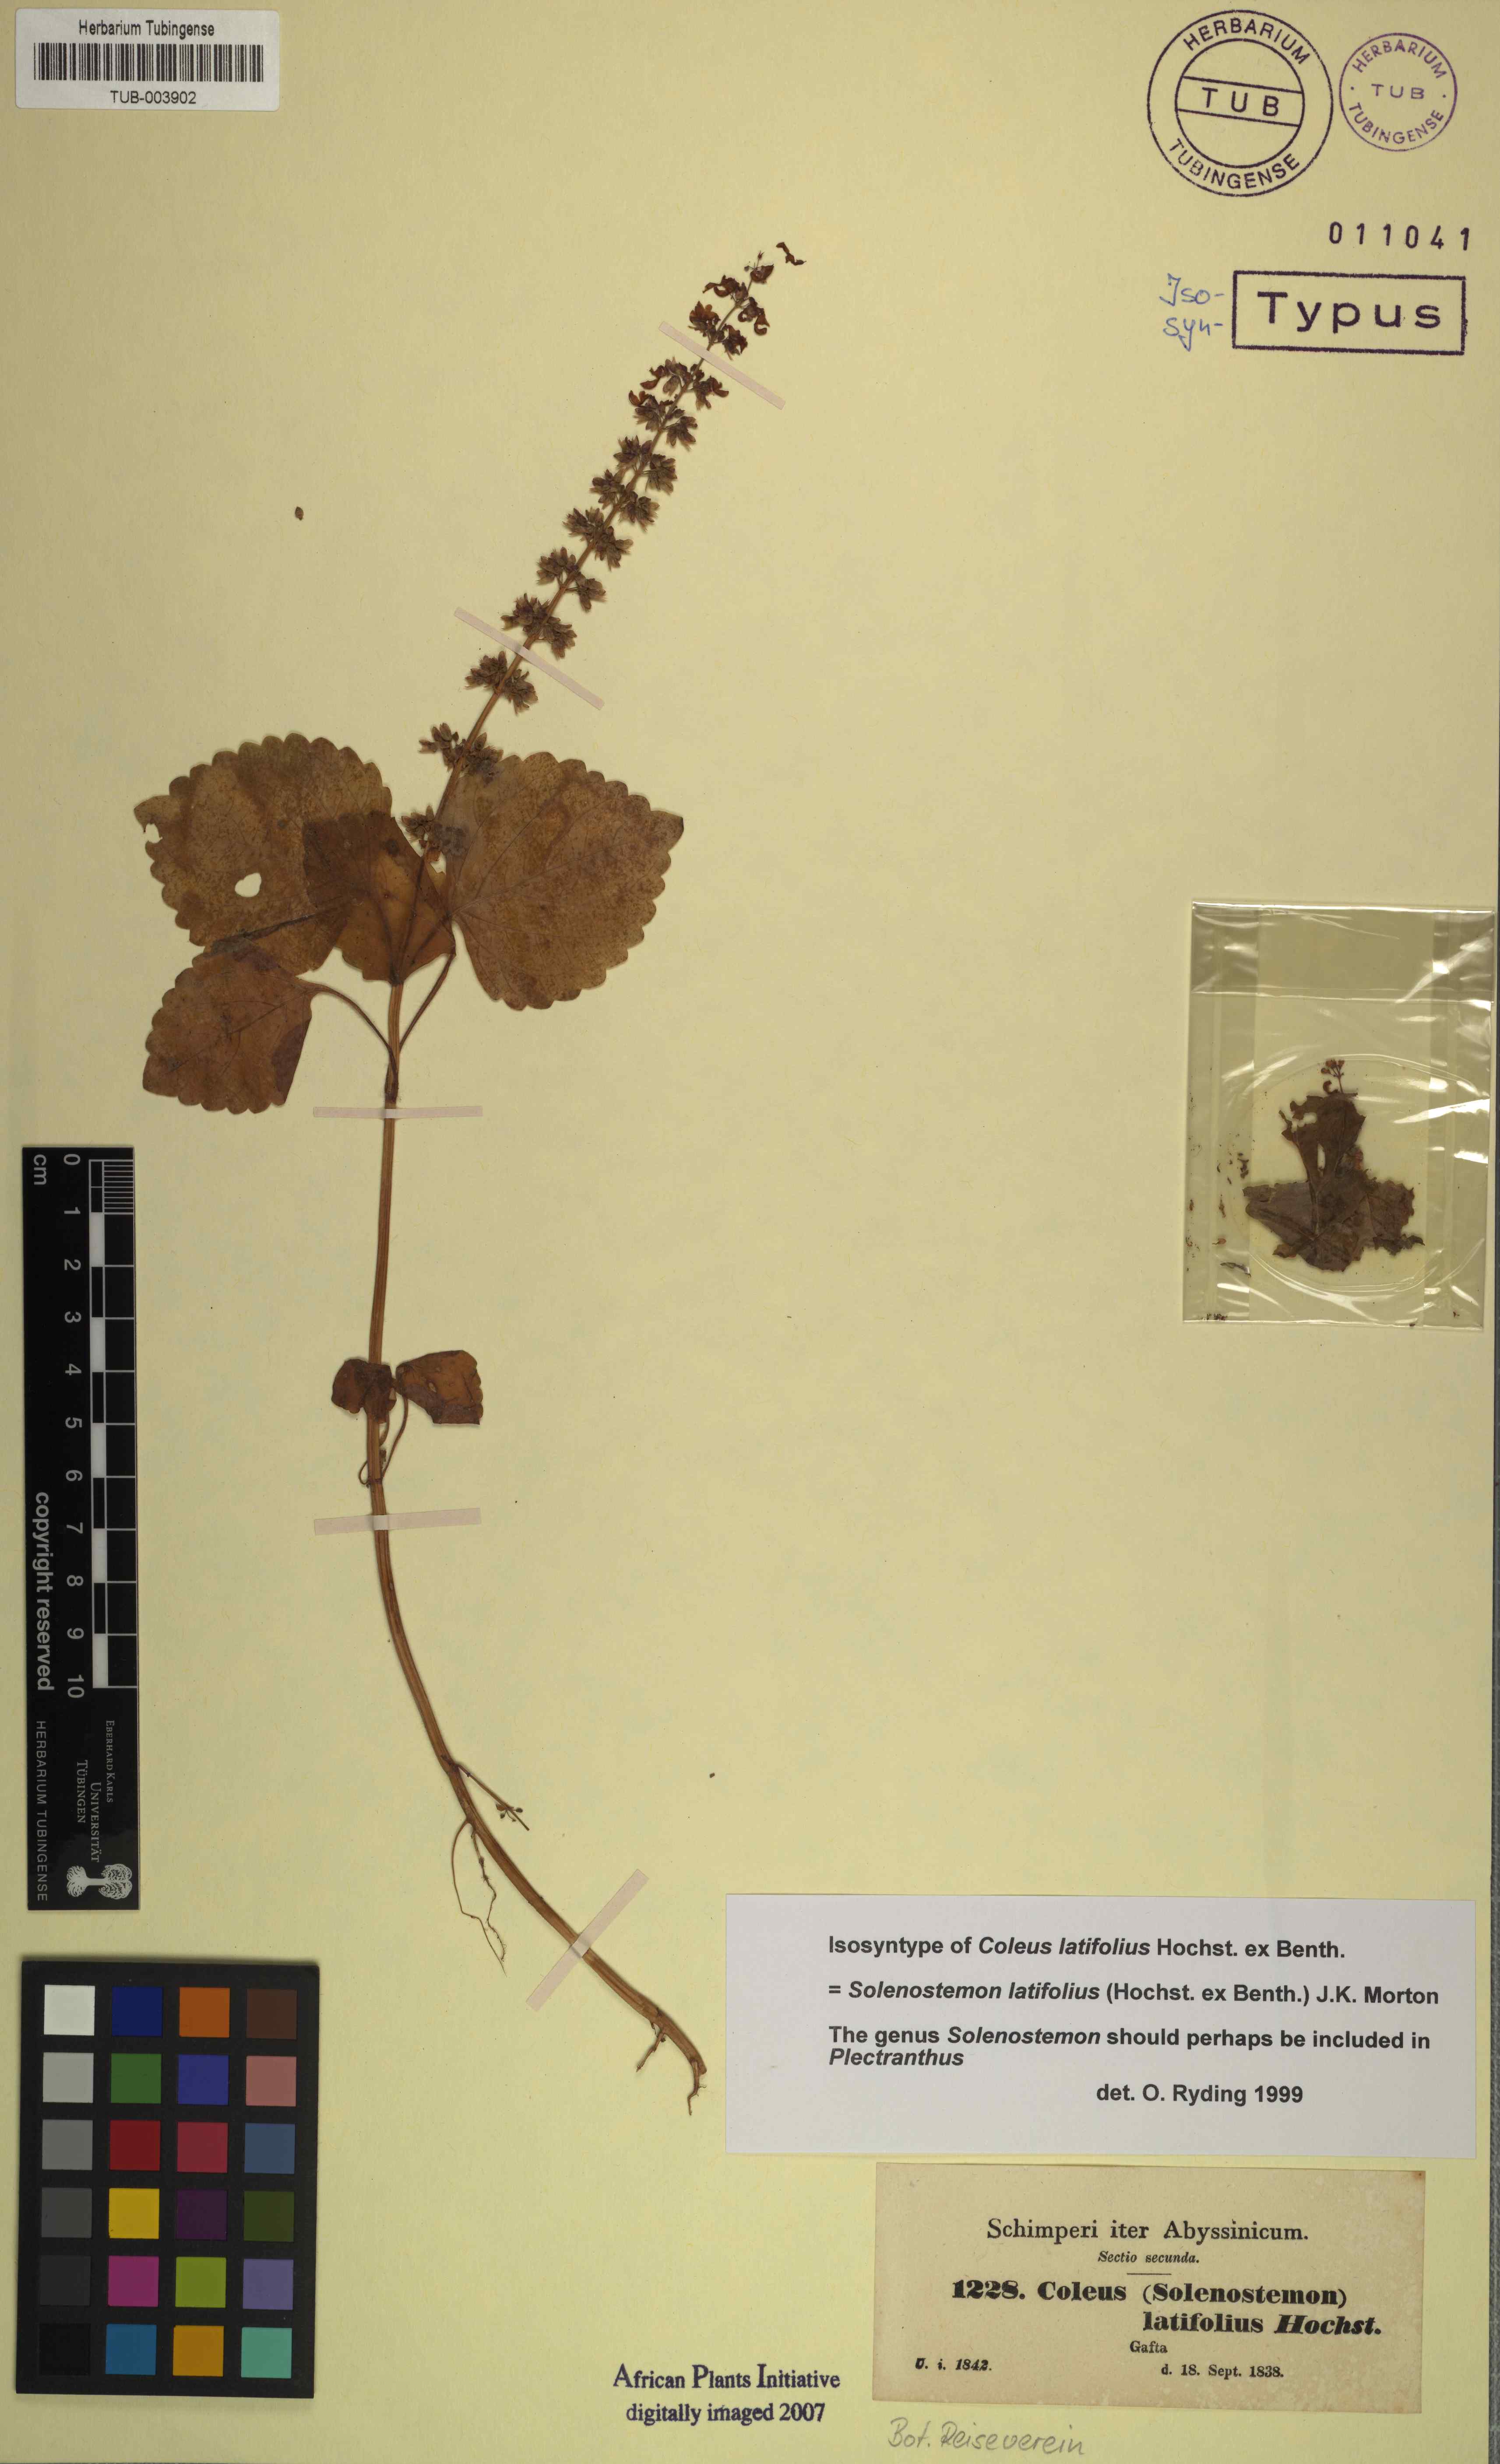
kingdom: Plantae
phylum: Tracheophyta
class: Magnoliopsida
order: Lamiales
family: Lamiaceae
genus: Coleus
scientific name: Coleus bojeri
